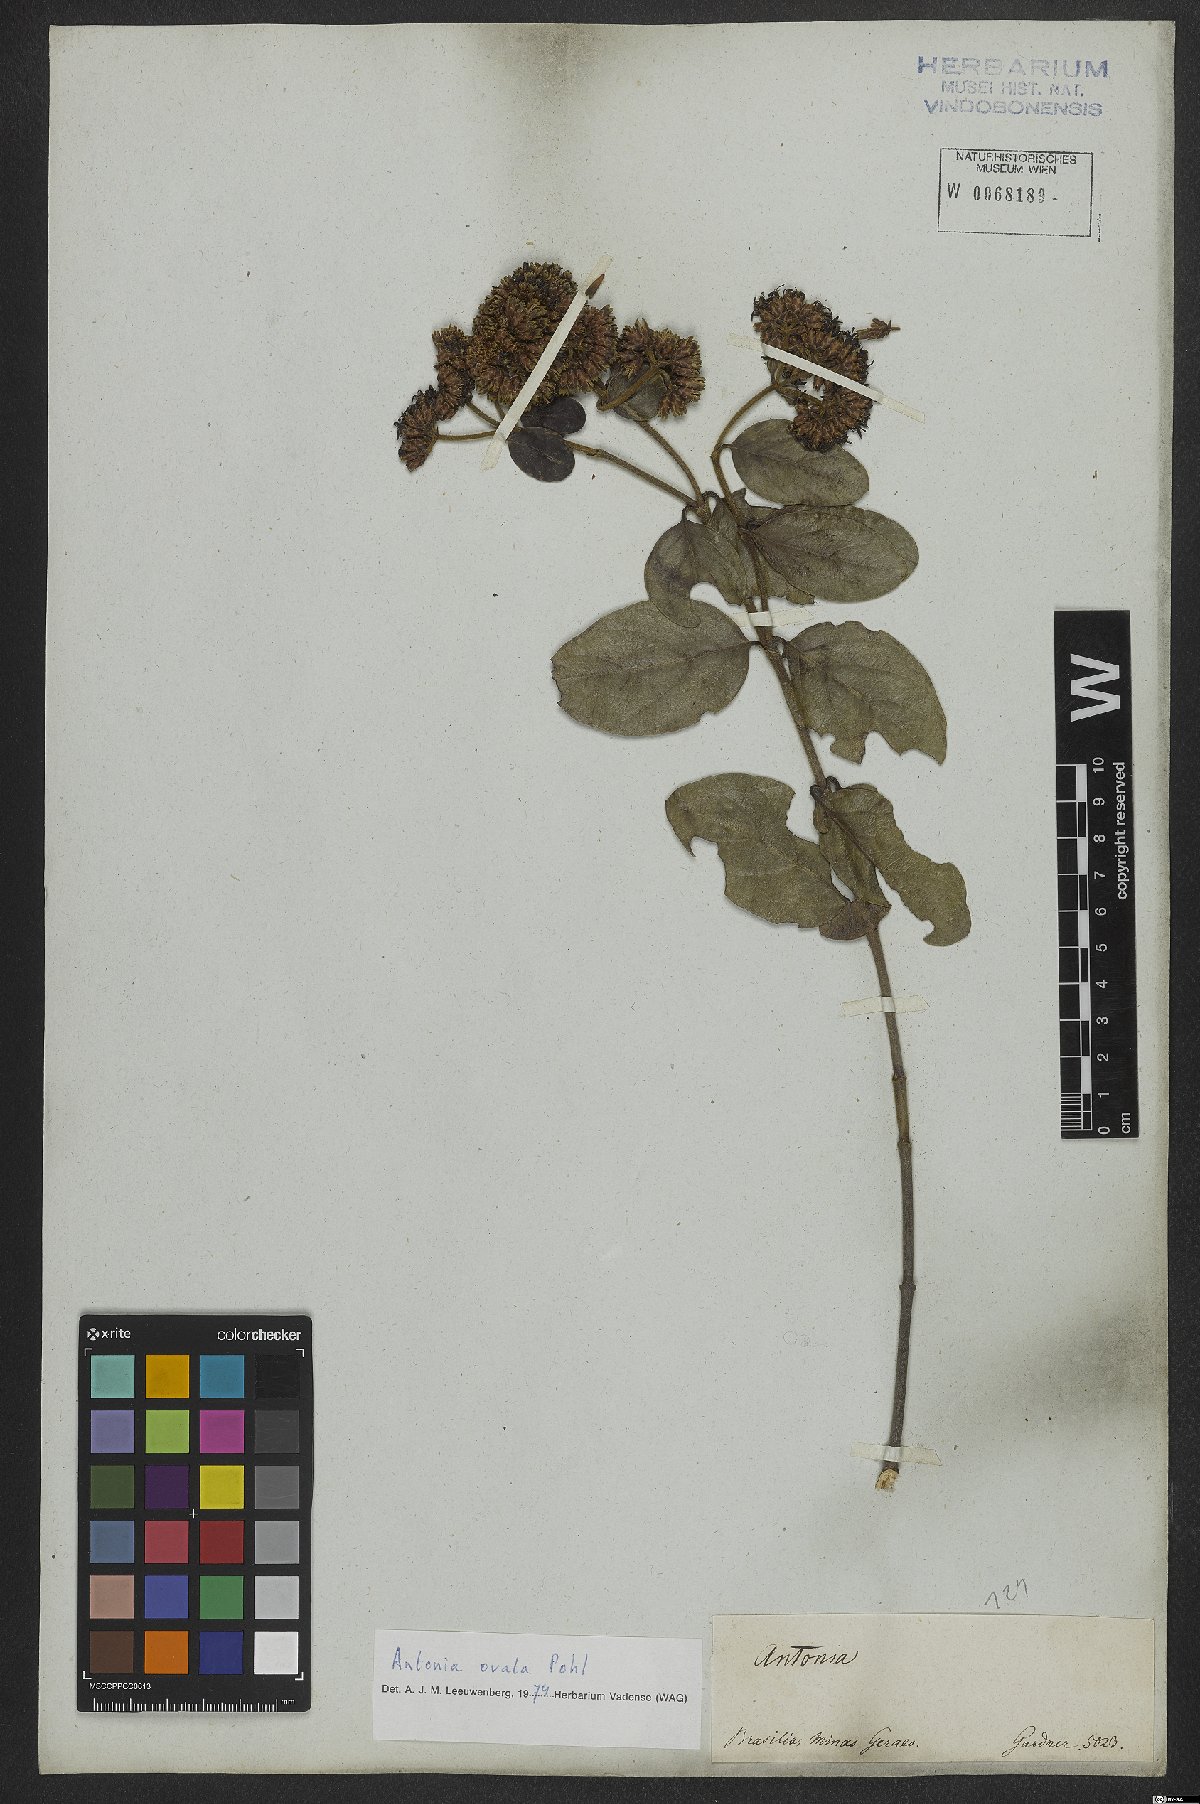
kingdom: Plantae
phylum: Tracheophyta
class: Magnoliopsida
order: Gentianales
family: Loganiaceae
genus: Antonia
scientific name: Antonia ovata
